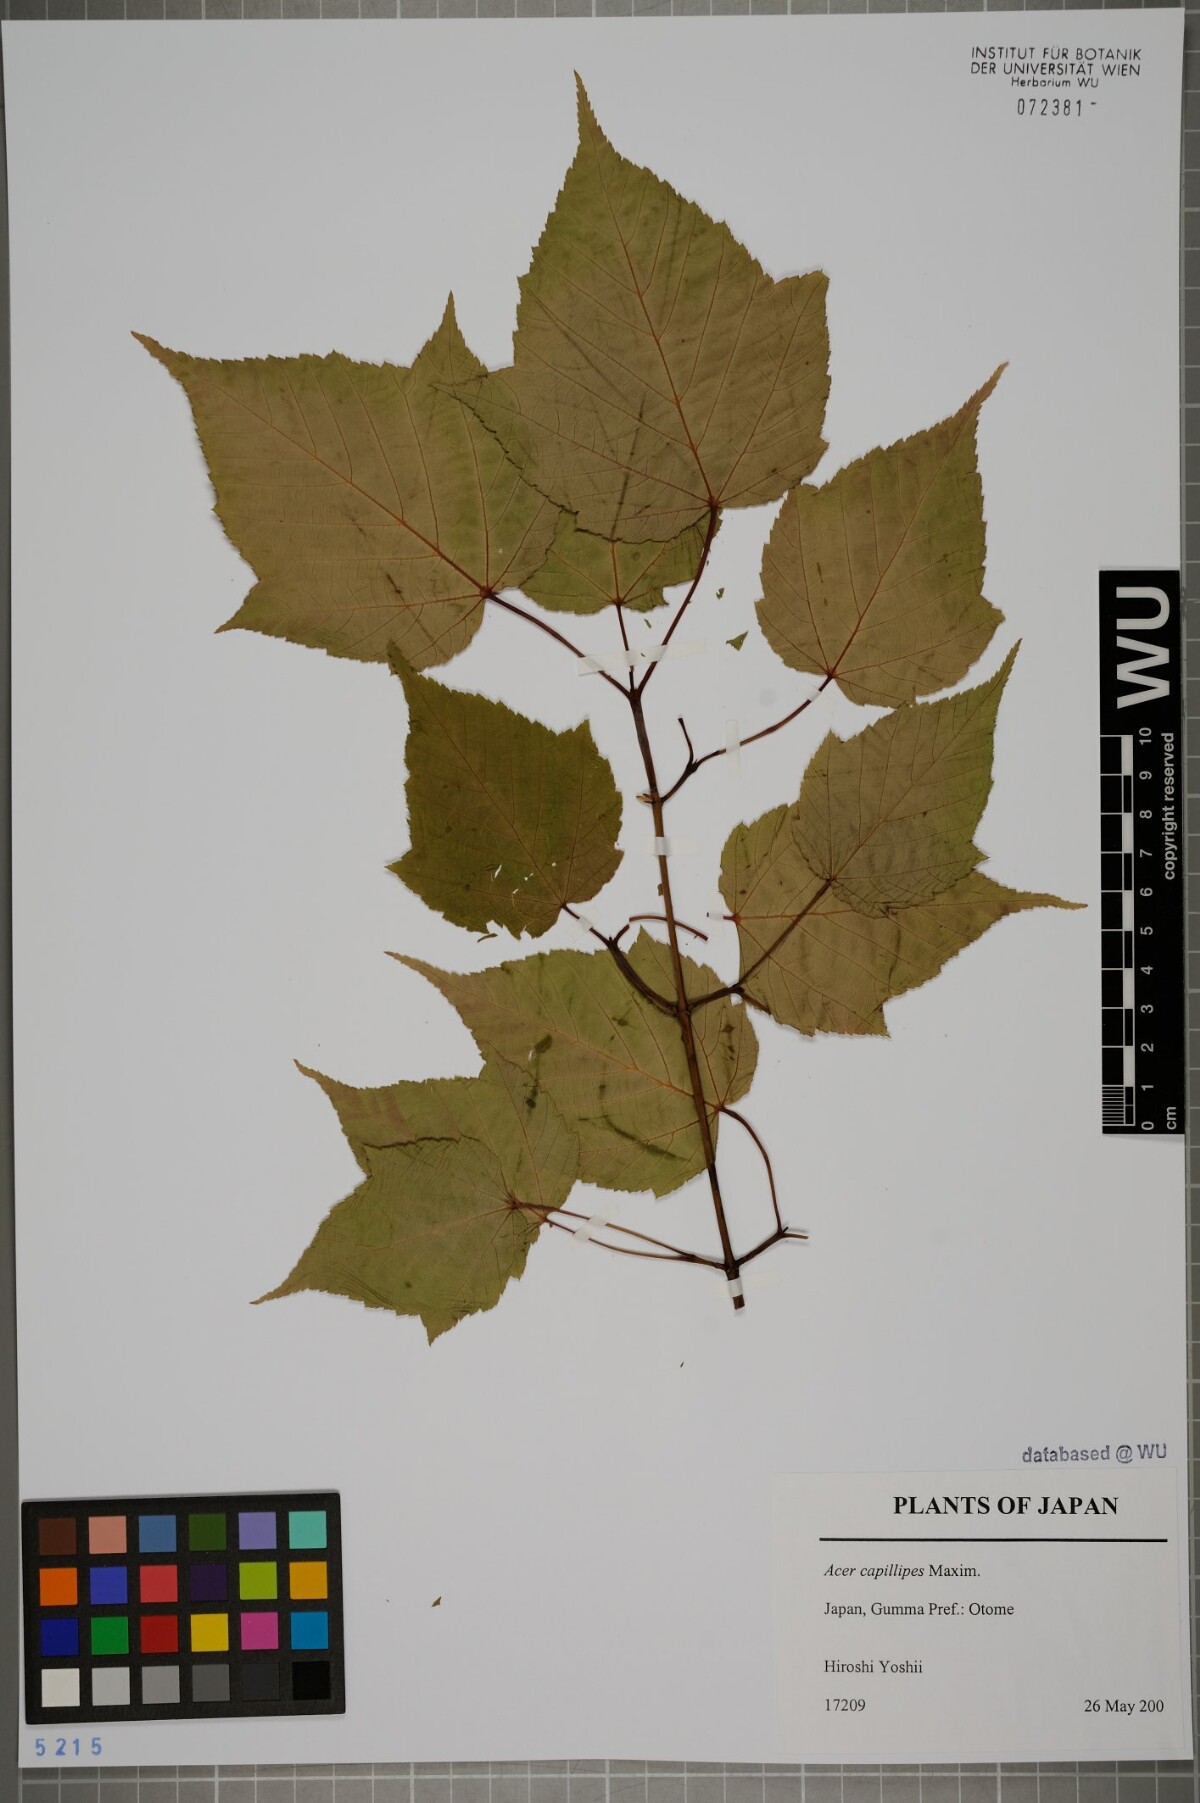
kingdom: Plantae
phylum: Tracheophyta
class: Magnoliopsida
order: Sapindales
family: Sapindaceae
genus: Acer
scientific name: Acer capillipes
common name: Kyushu maple
